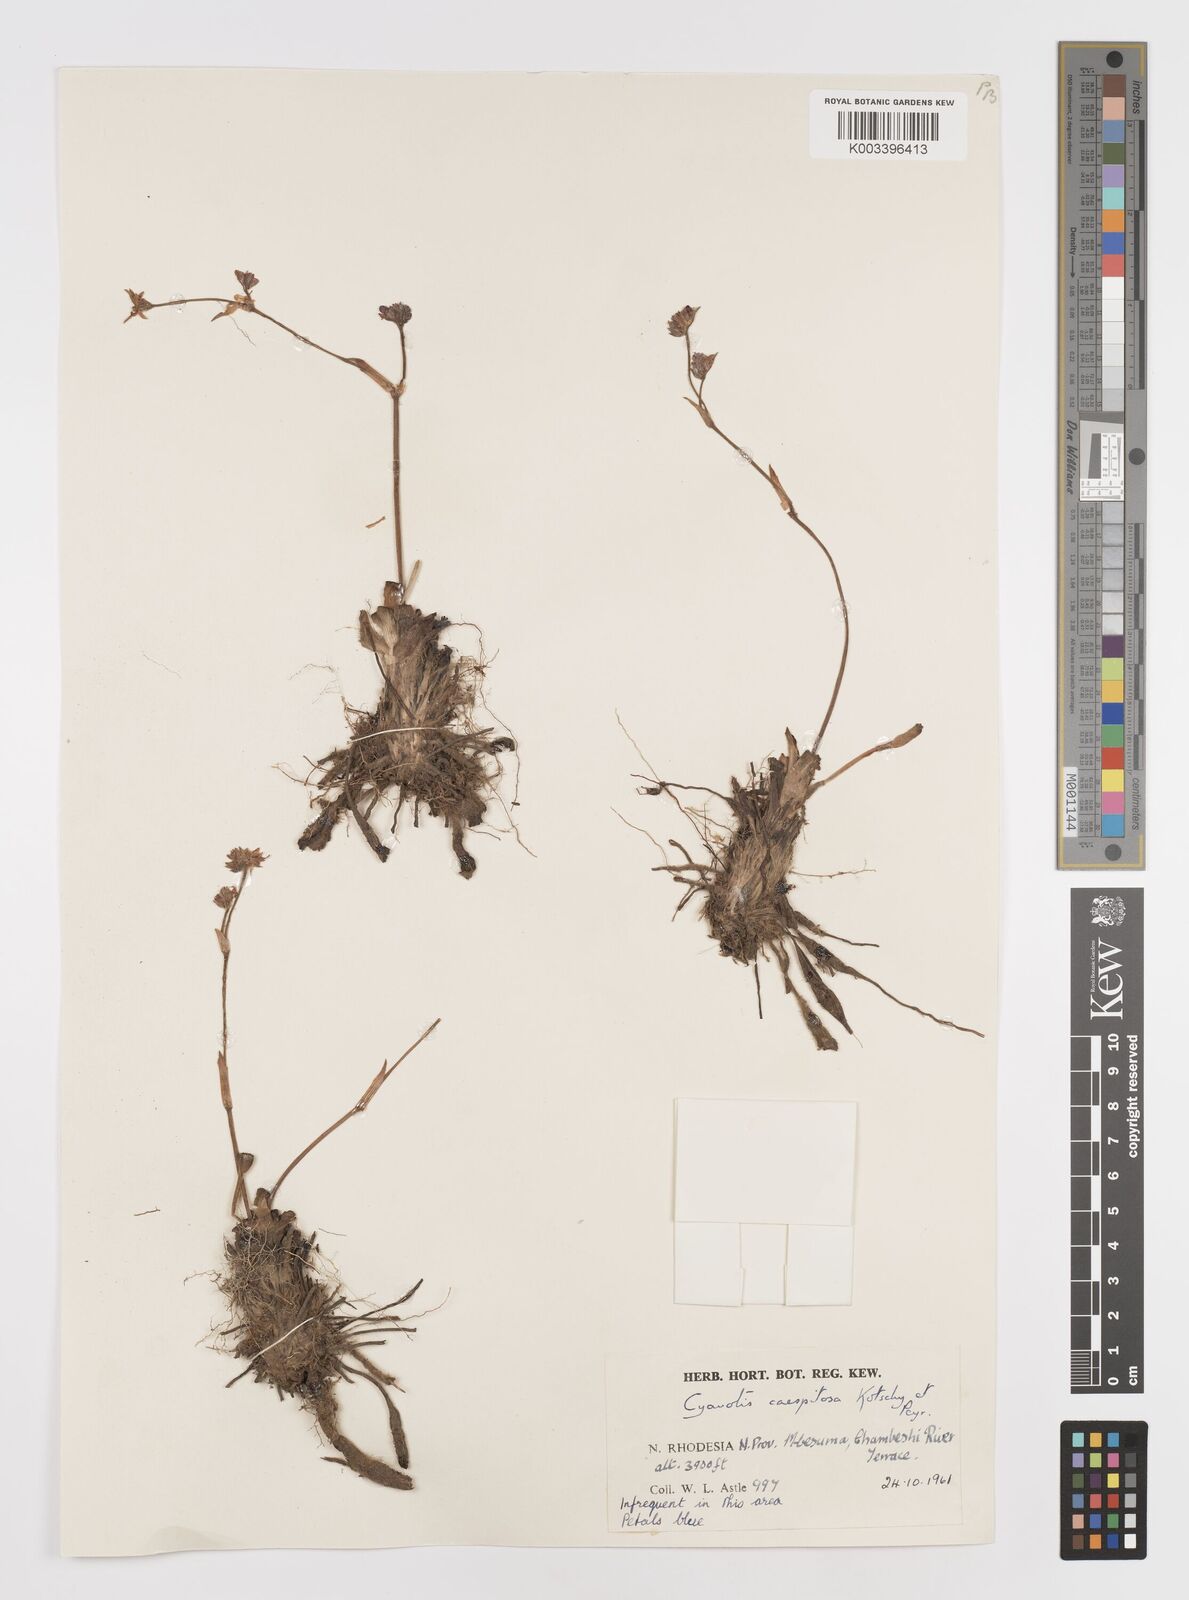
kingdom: Plantae
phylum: Tracheophyta
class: Liliopsida
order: Commelinales
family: Commelinaceae
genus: Cyanotis
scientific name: Cyanotis caespitosa
